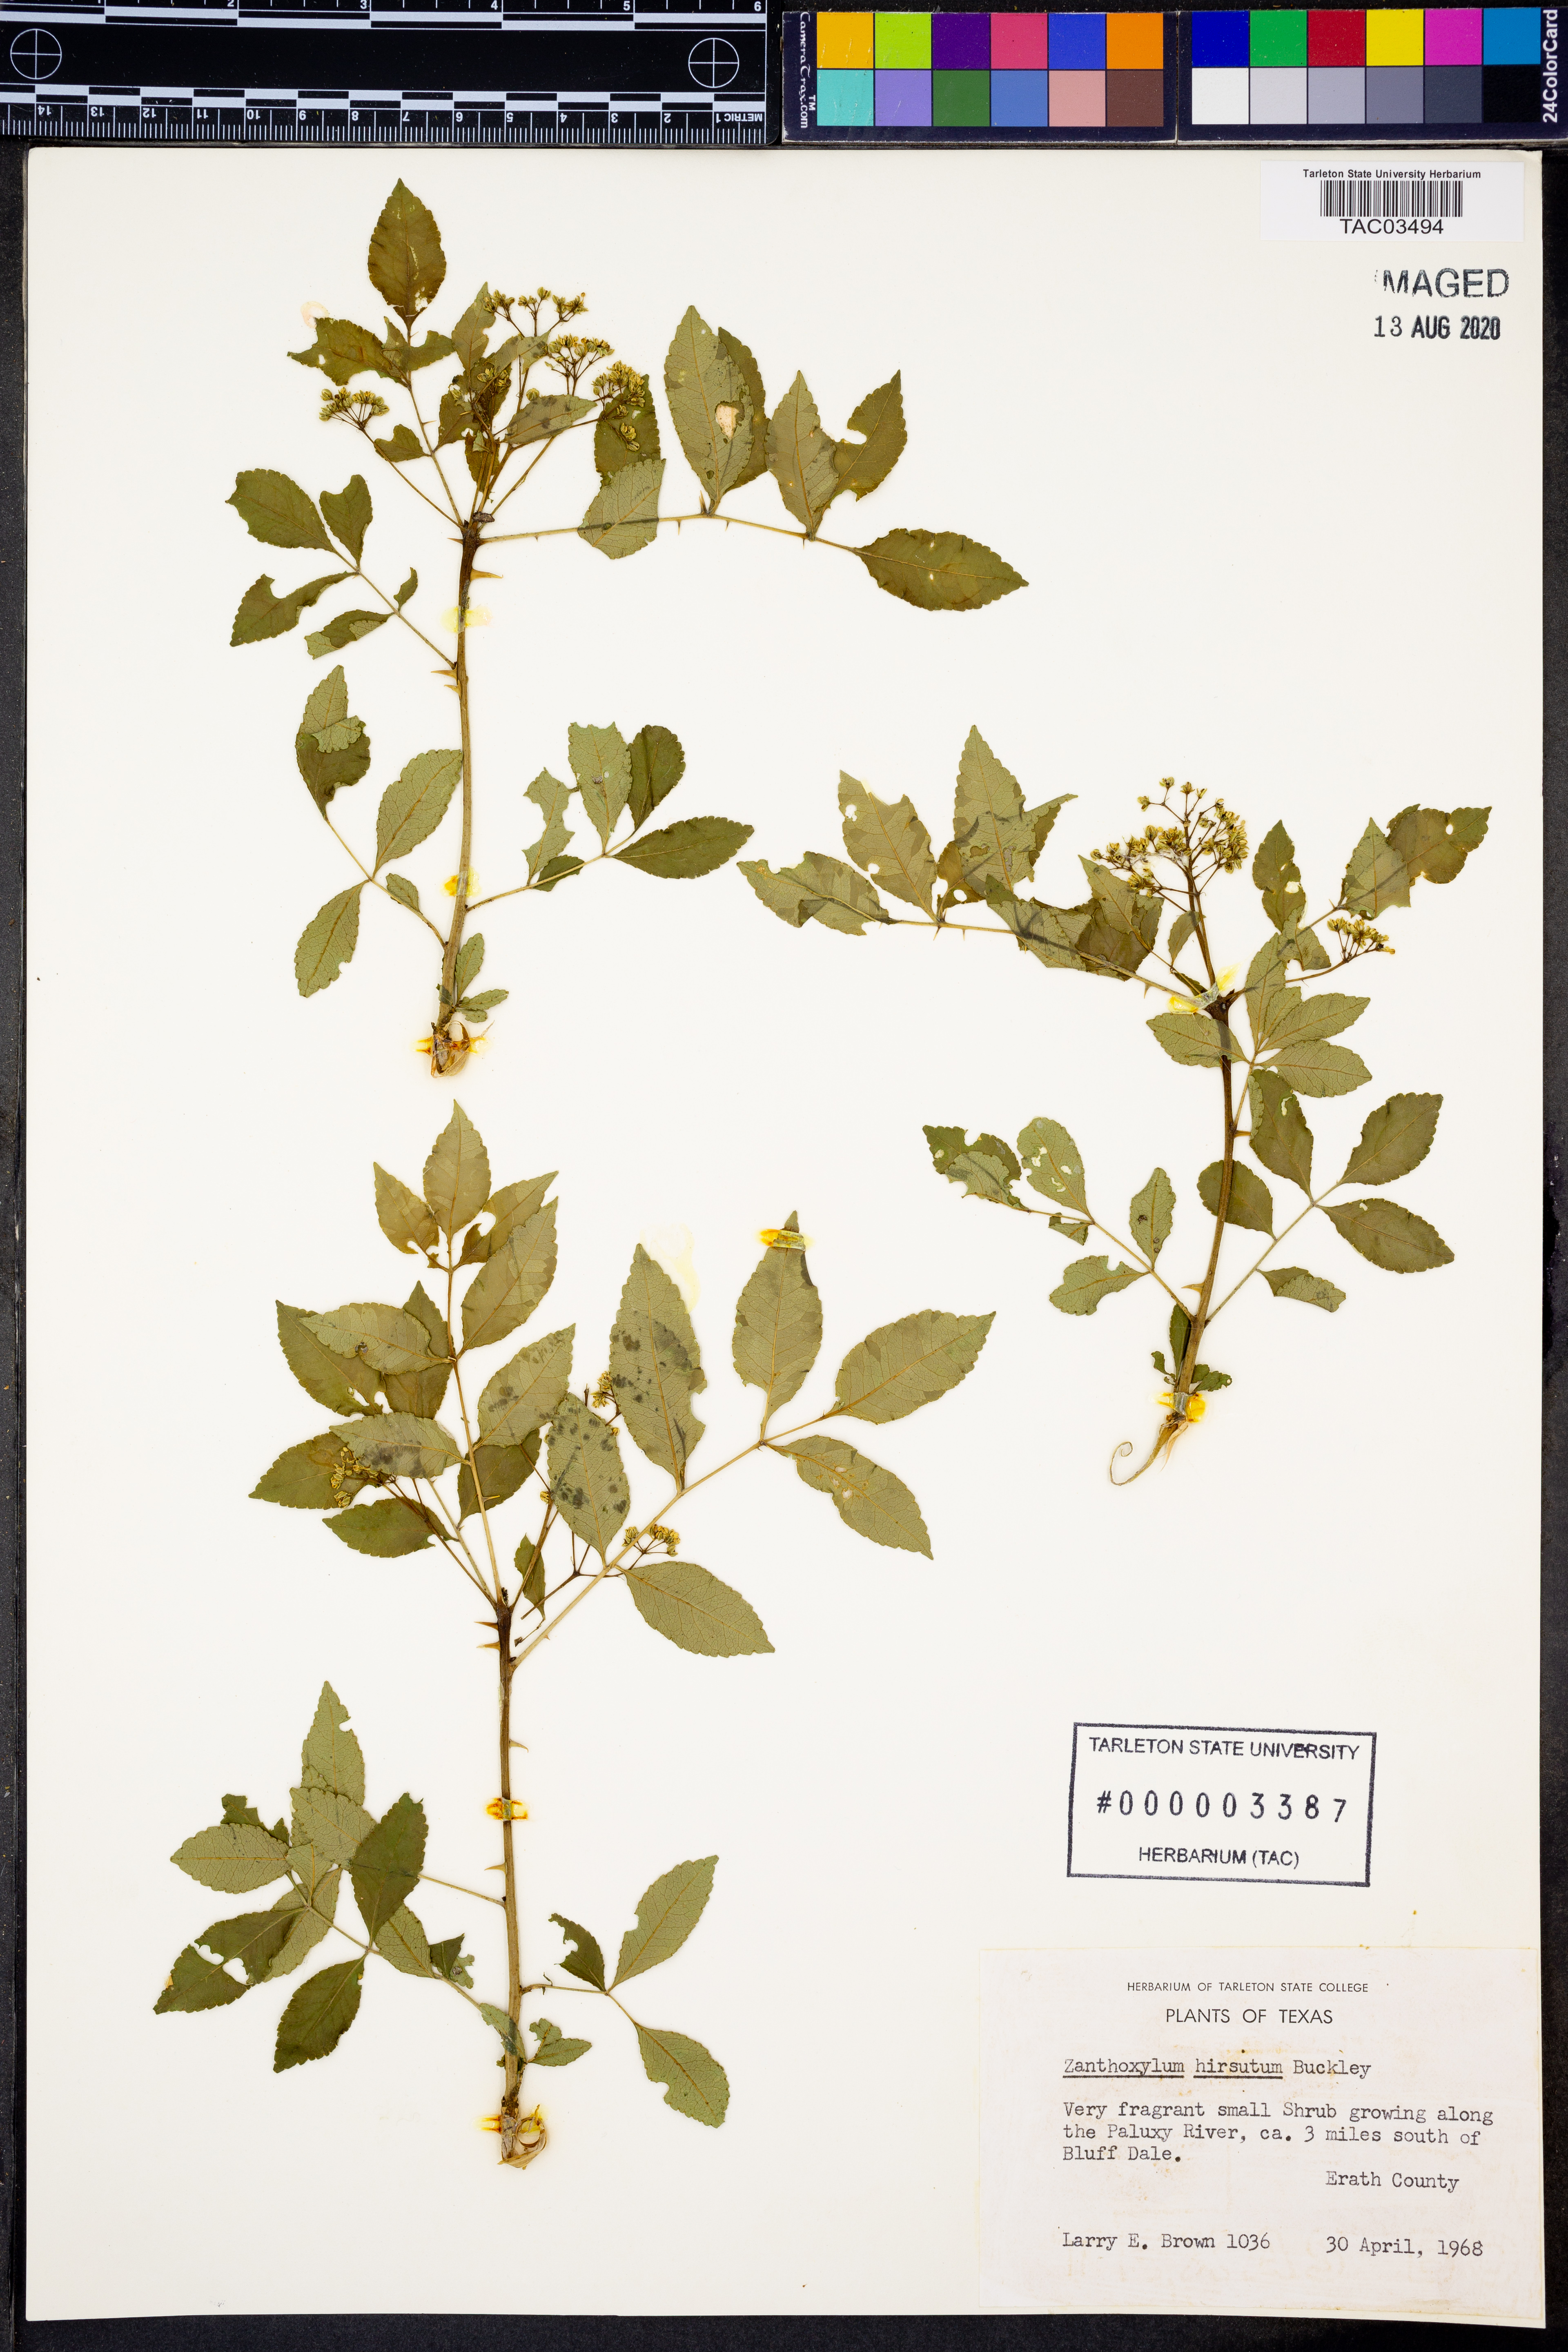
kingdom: Plantae
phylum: Tracheophyta
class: Magnoliopsida
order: Sapindales
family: Rutaceae
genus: Zanthoxylum
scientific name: Zanthoxylum clava-herculis
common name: Hercules'-club
